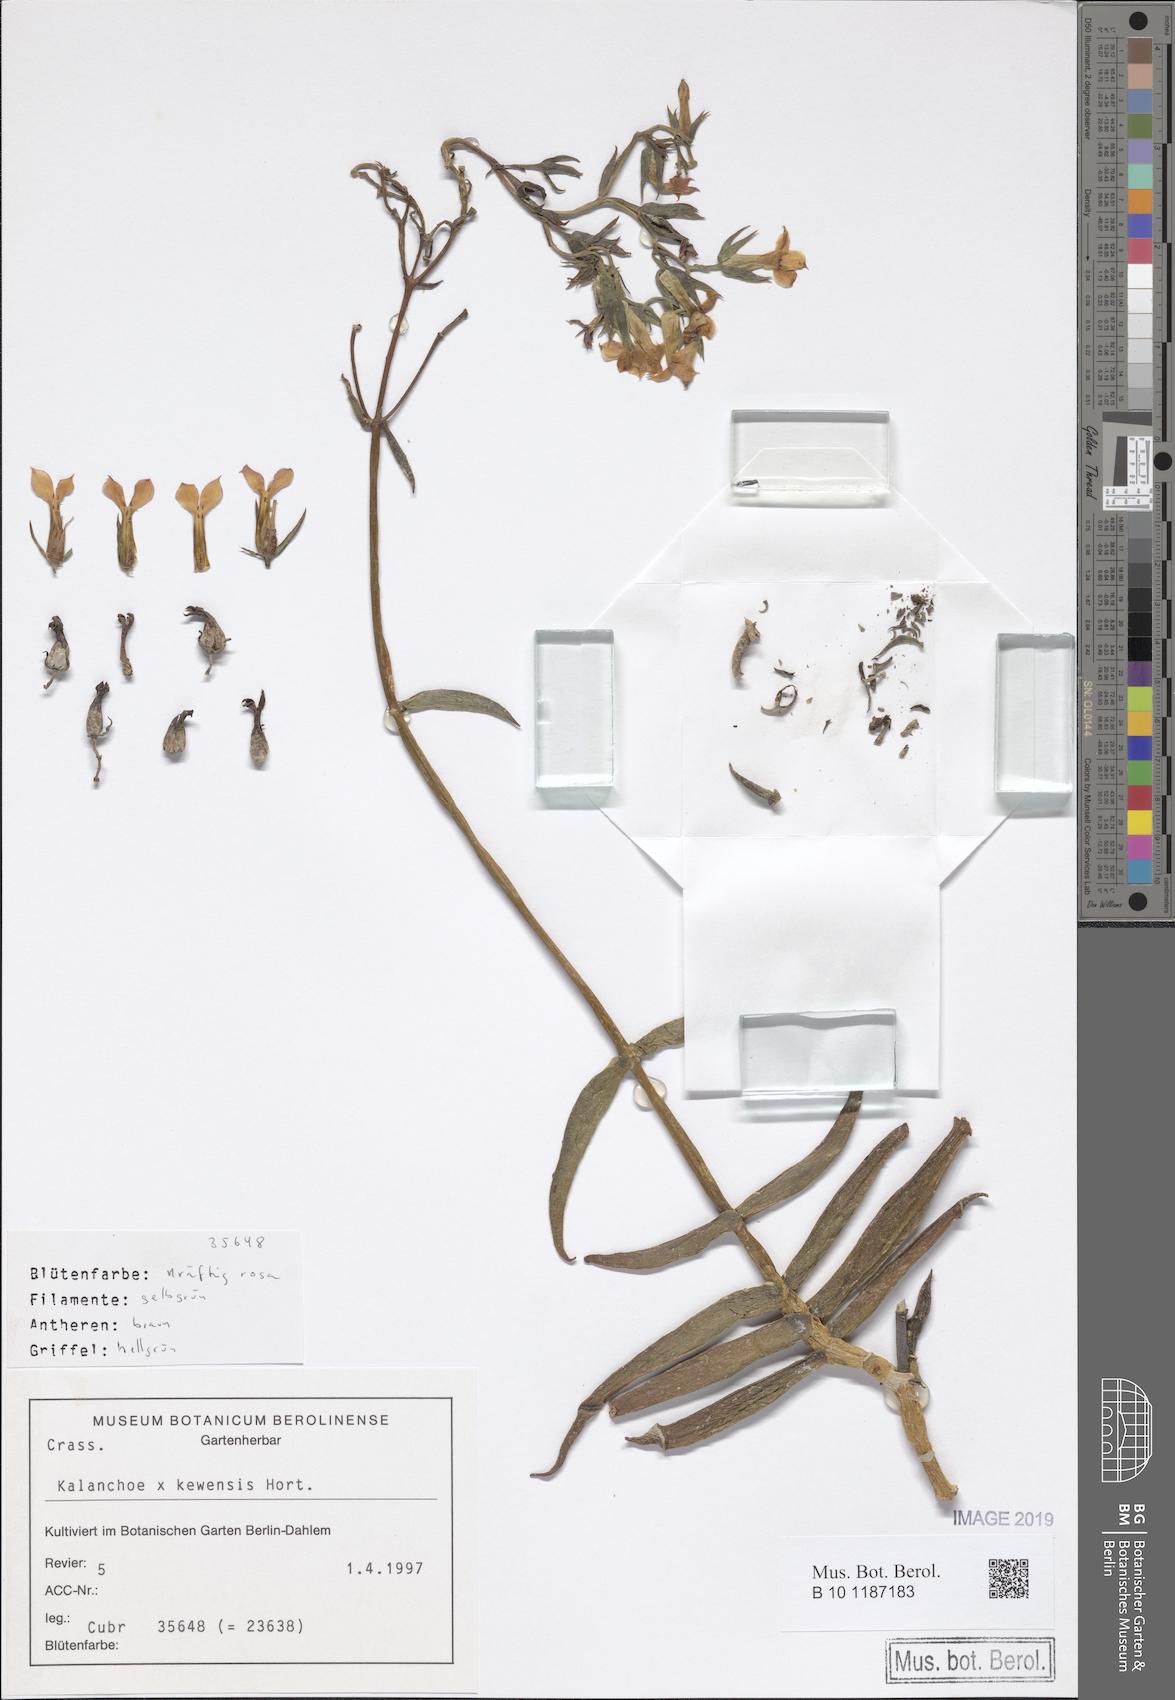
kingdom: Plantae
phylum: Tracheophyta
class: Magnoliopsida
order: Saxifragales
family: Crassulaceae
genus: Kalanchoe
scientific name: Kalanchoe kewensis
